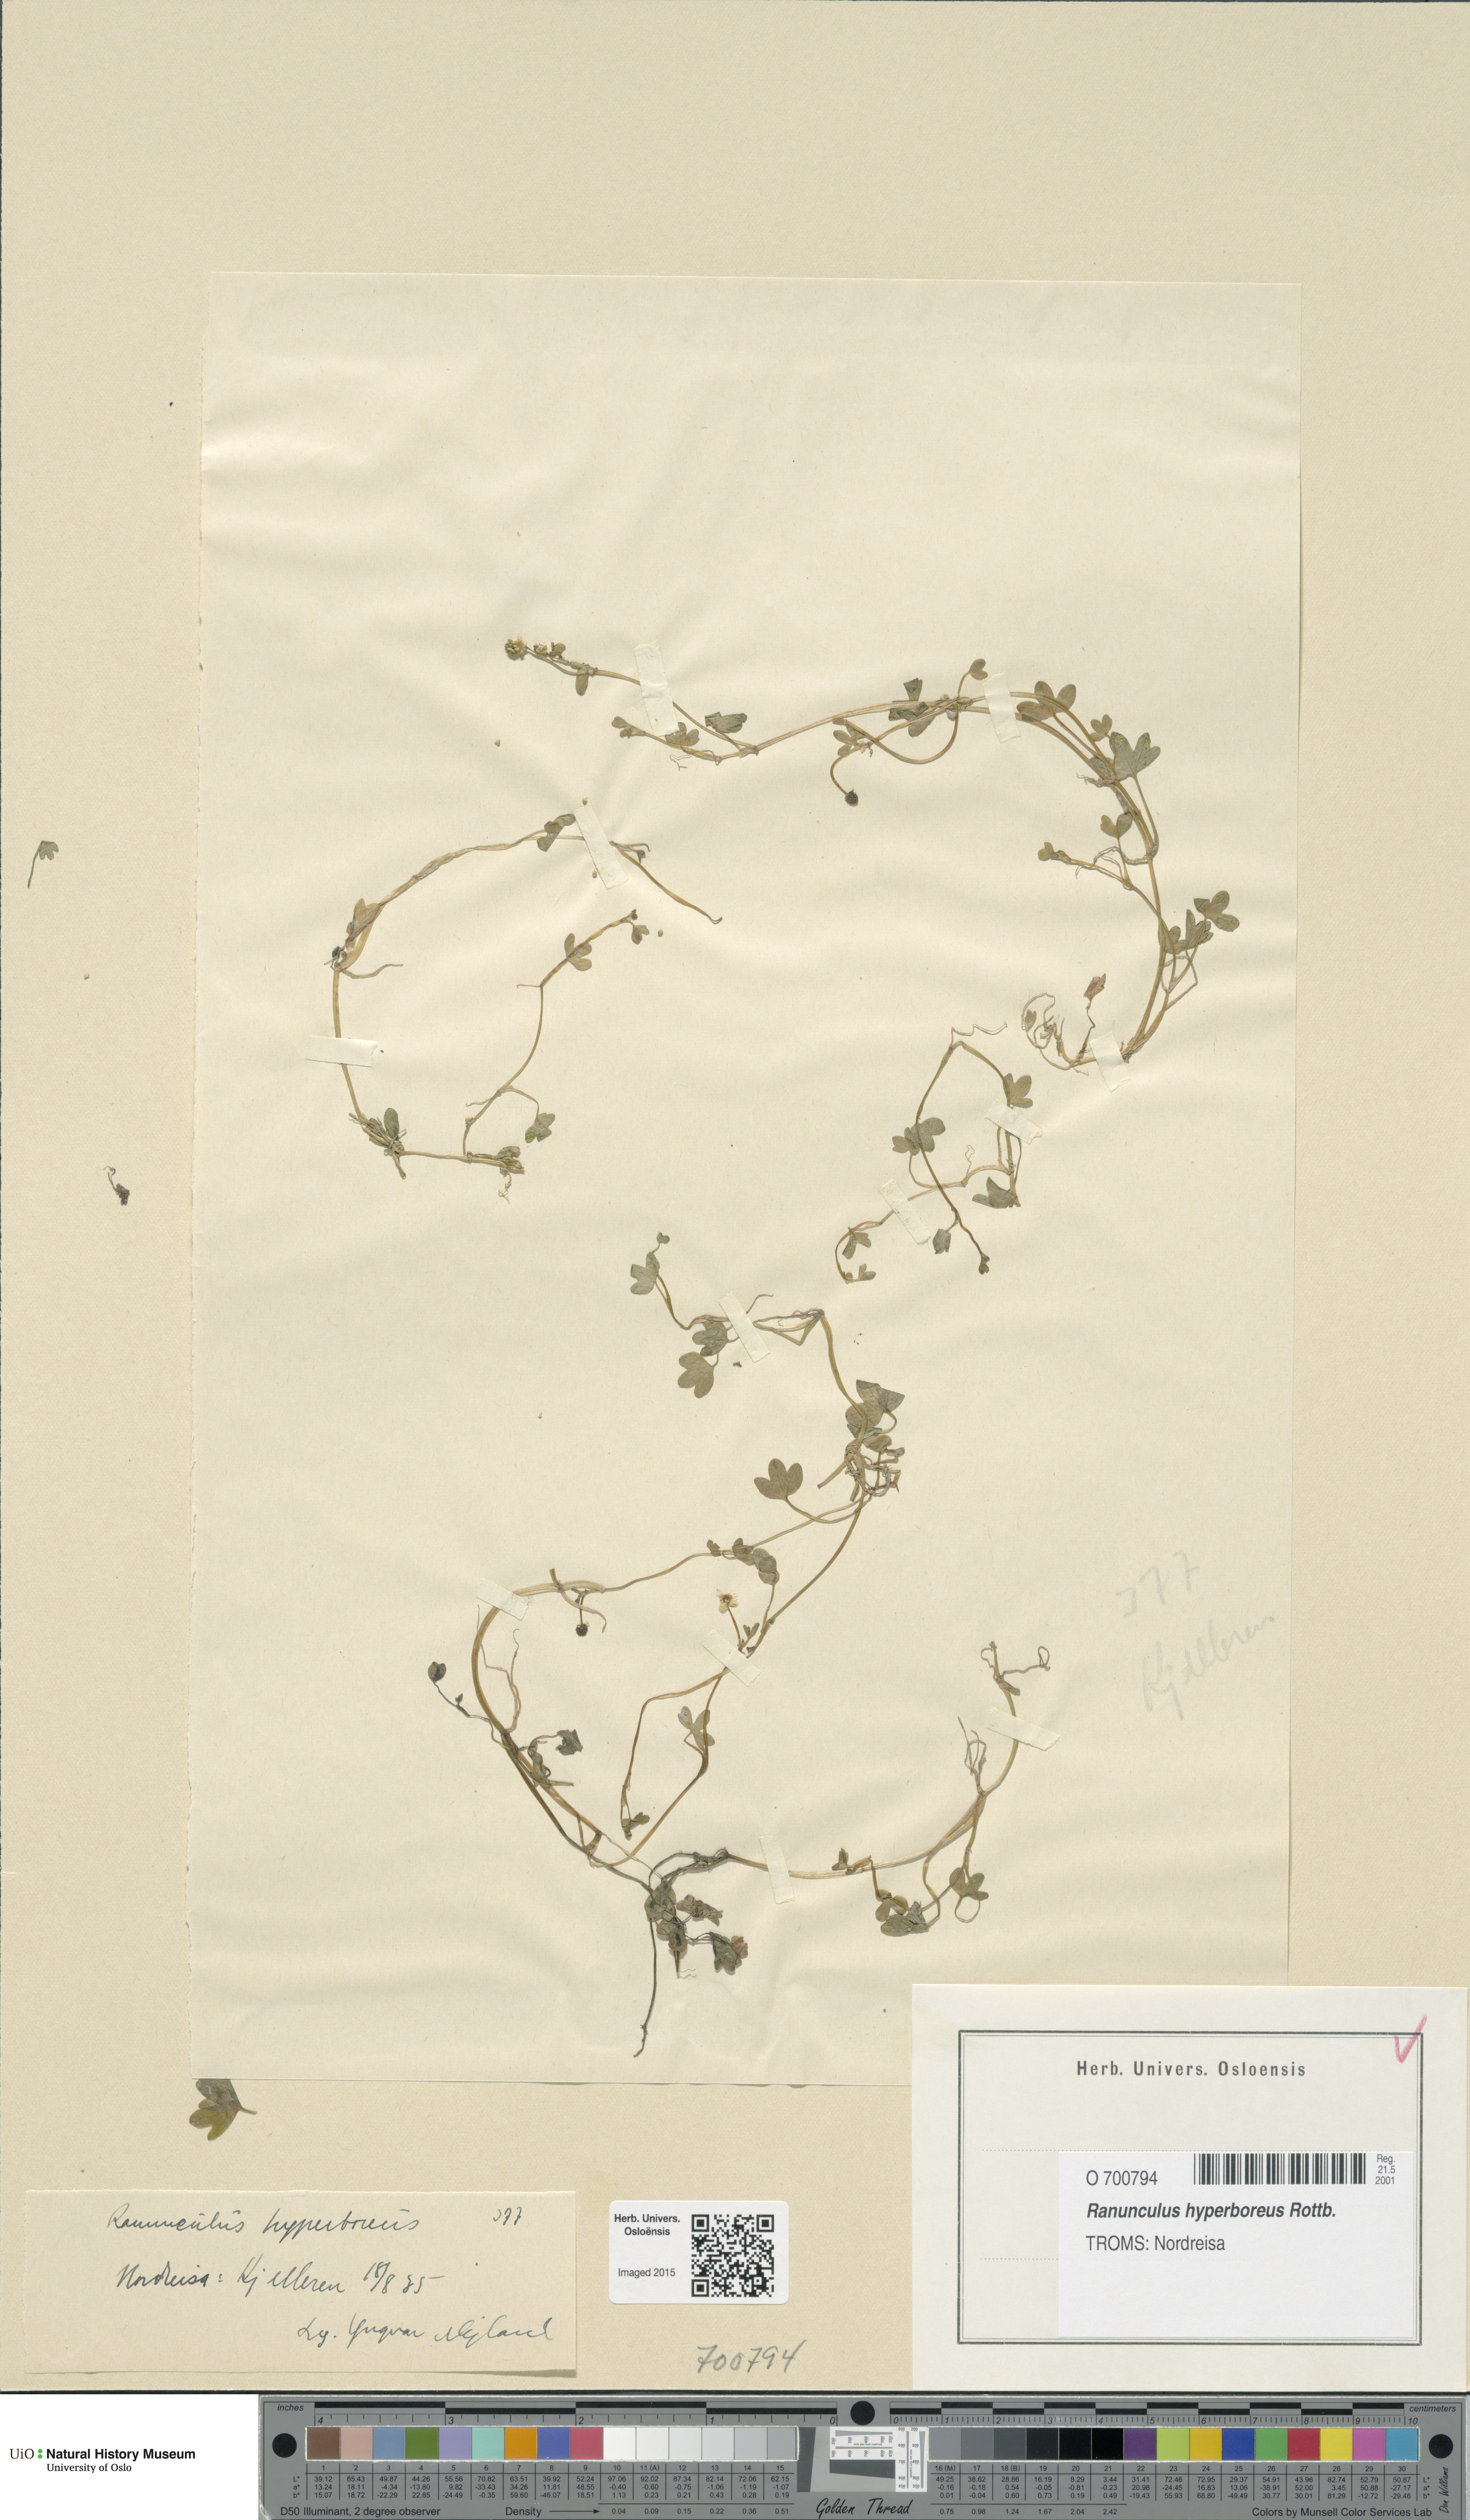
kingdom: Plantae
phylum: Tracheophyta
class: Magnoliopsida
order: Ranunculales
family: Ranunculaceae
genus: Ranunculus
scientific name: Ranunculus hyperboreus
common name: Arctic buttercup
